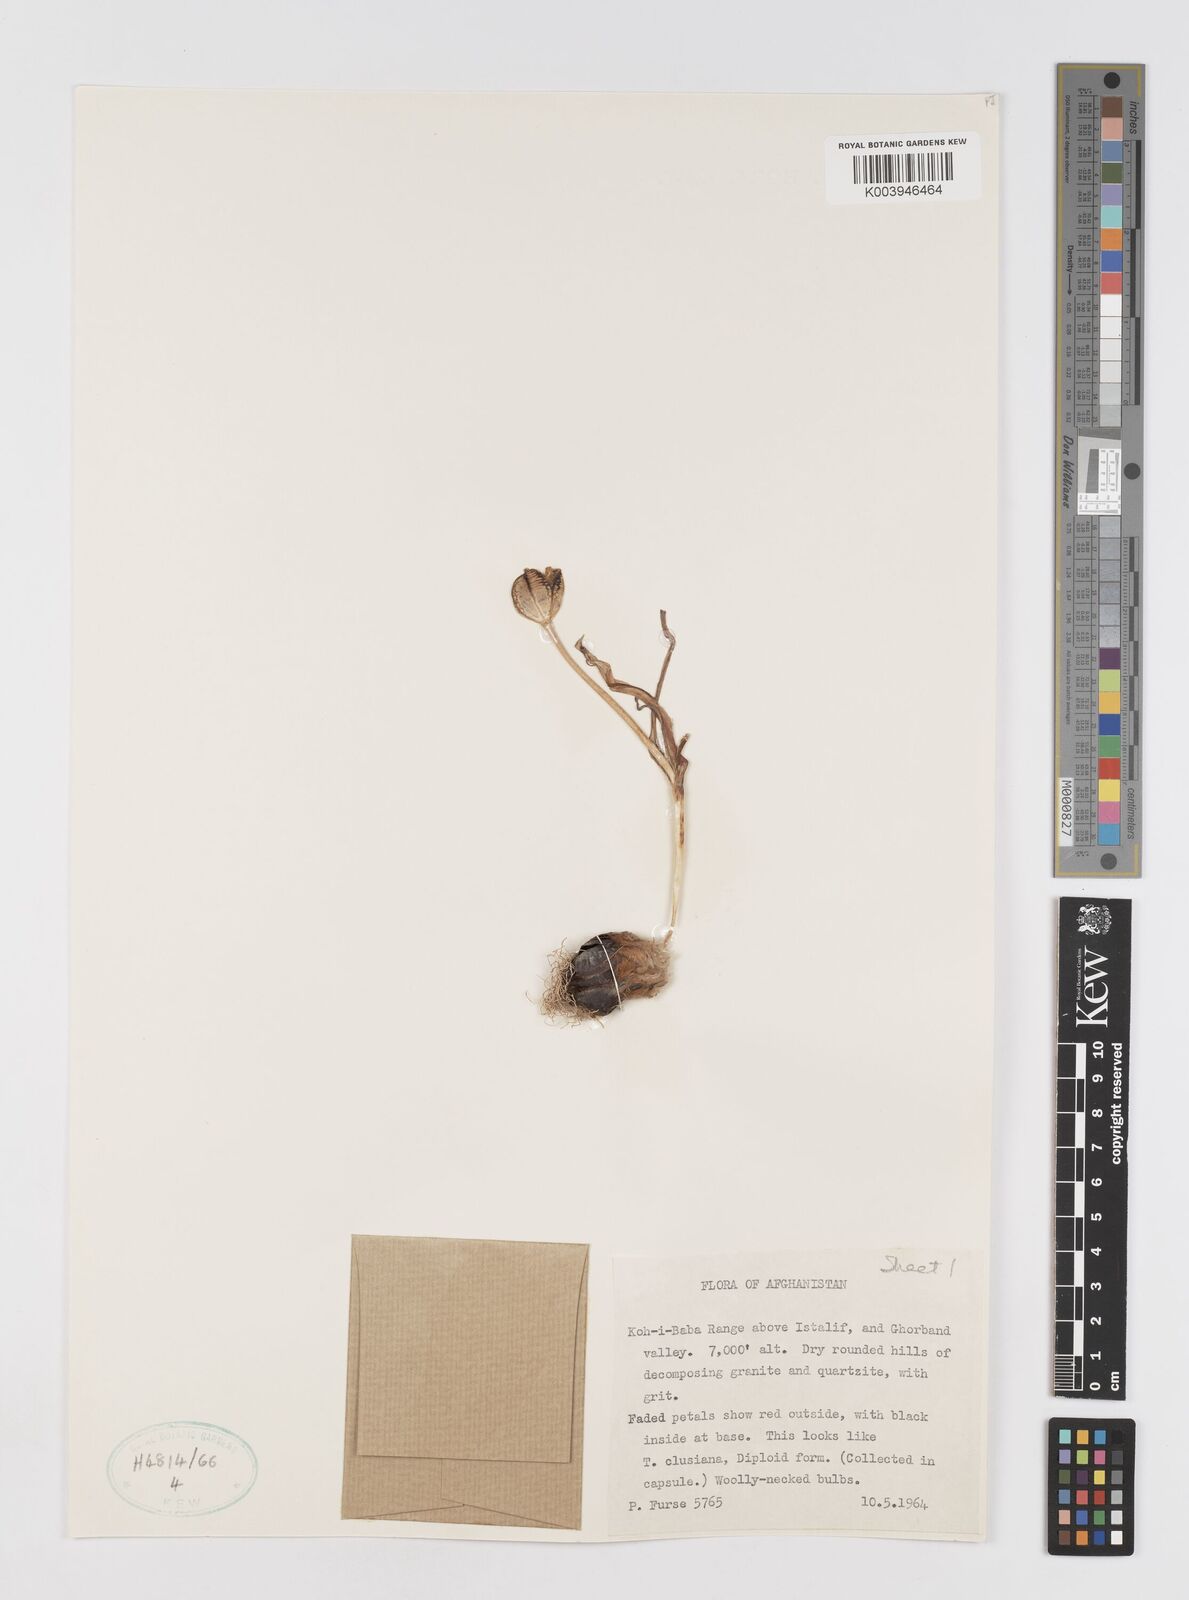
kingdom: Plantae
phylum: Tracheophyta
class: Liliopsida
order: Liliales
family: Liliaceae
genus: Tulipa
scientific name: Tulipa
